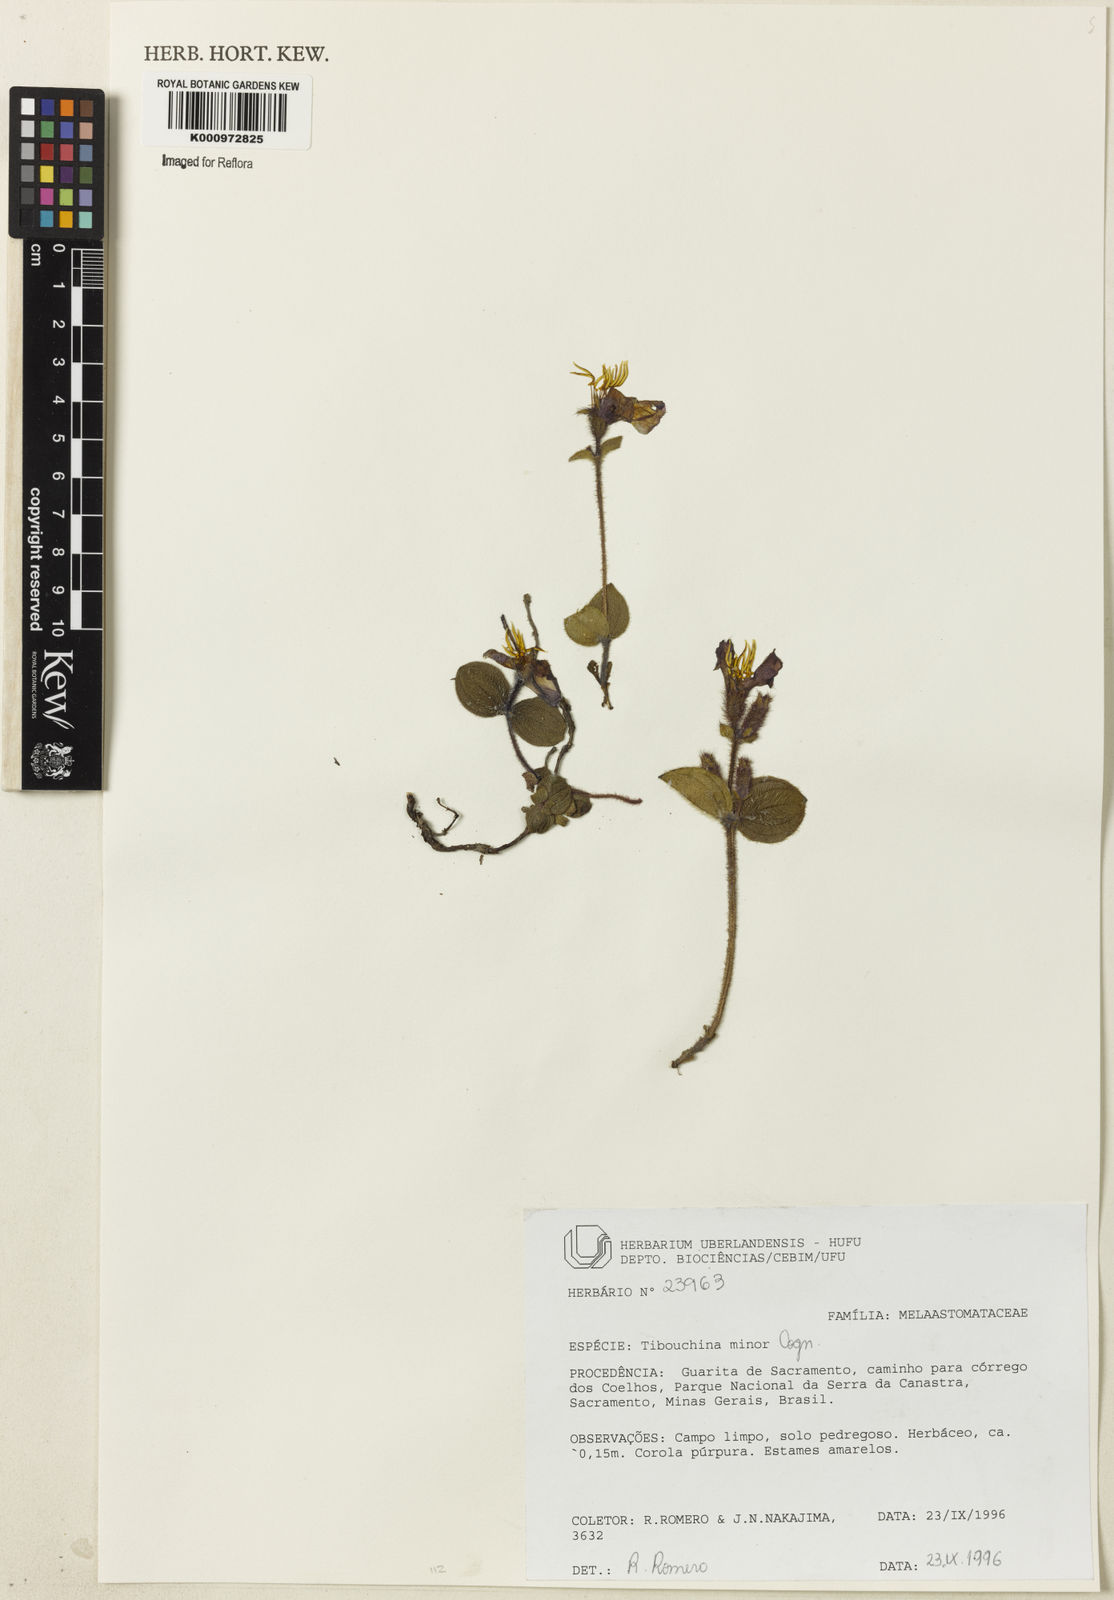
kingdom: Plantae
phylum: Tracheophyta
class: Magnoliopsida
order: Myrtales
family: Melastomataceae
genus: Chaetogastra
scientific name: Chaetogastra minor
